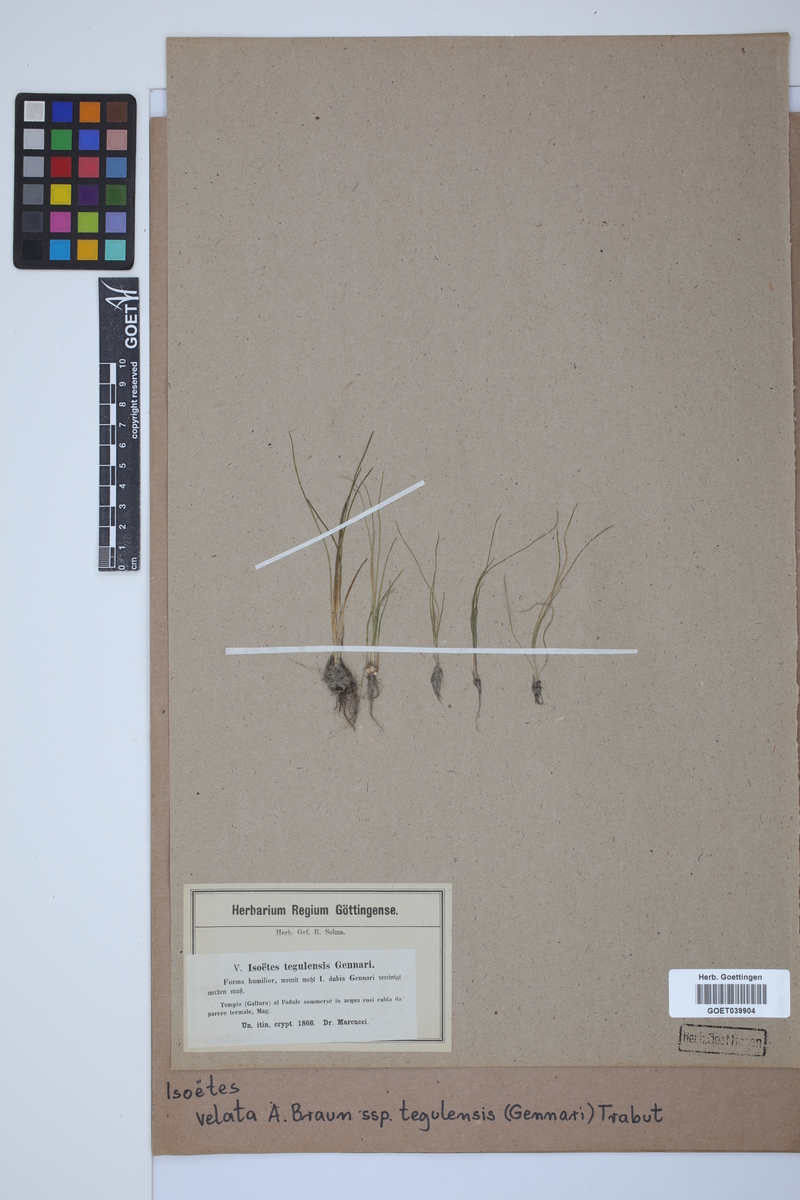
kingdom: Plantae
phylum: Tracheophyta
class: Lycopodiopsida
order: Isoetales
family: Isoetaceae
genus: Isoetes
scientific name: Isoetes tiguliana
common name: Sardinian quillwort
